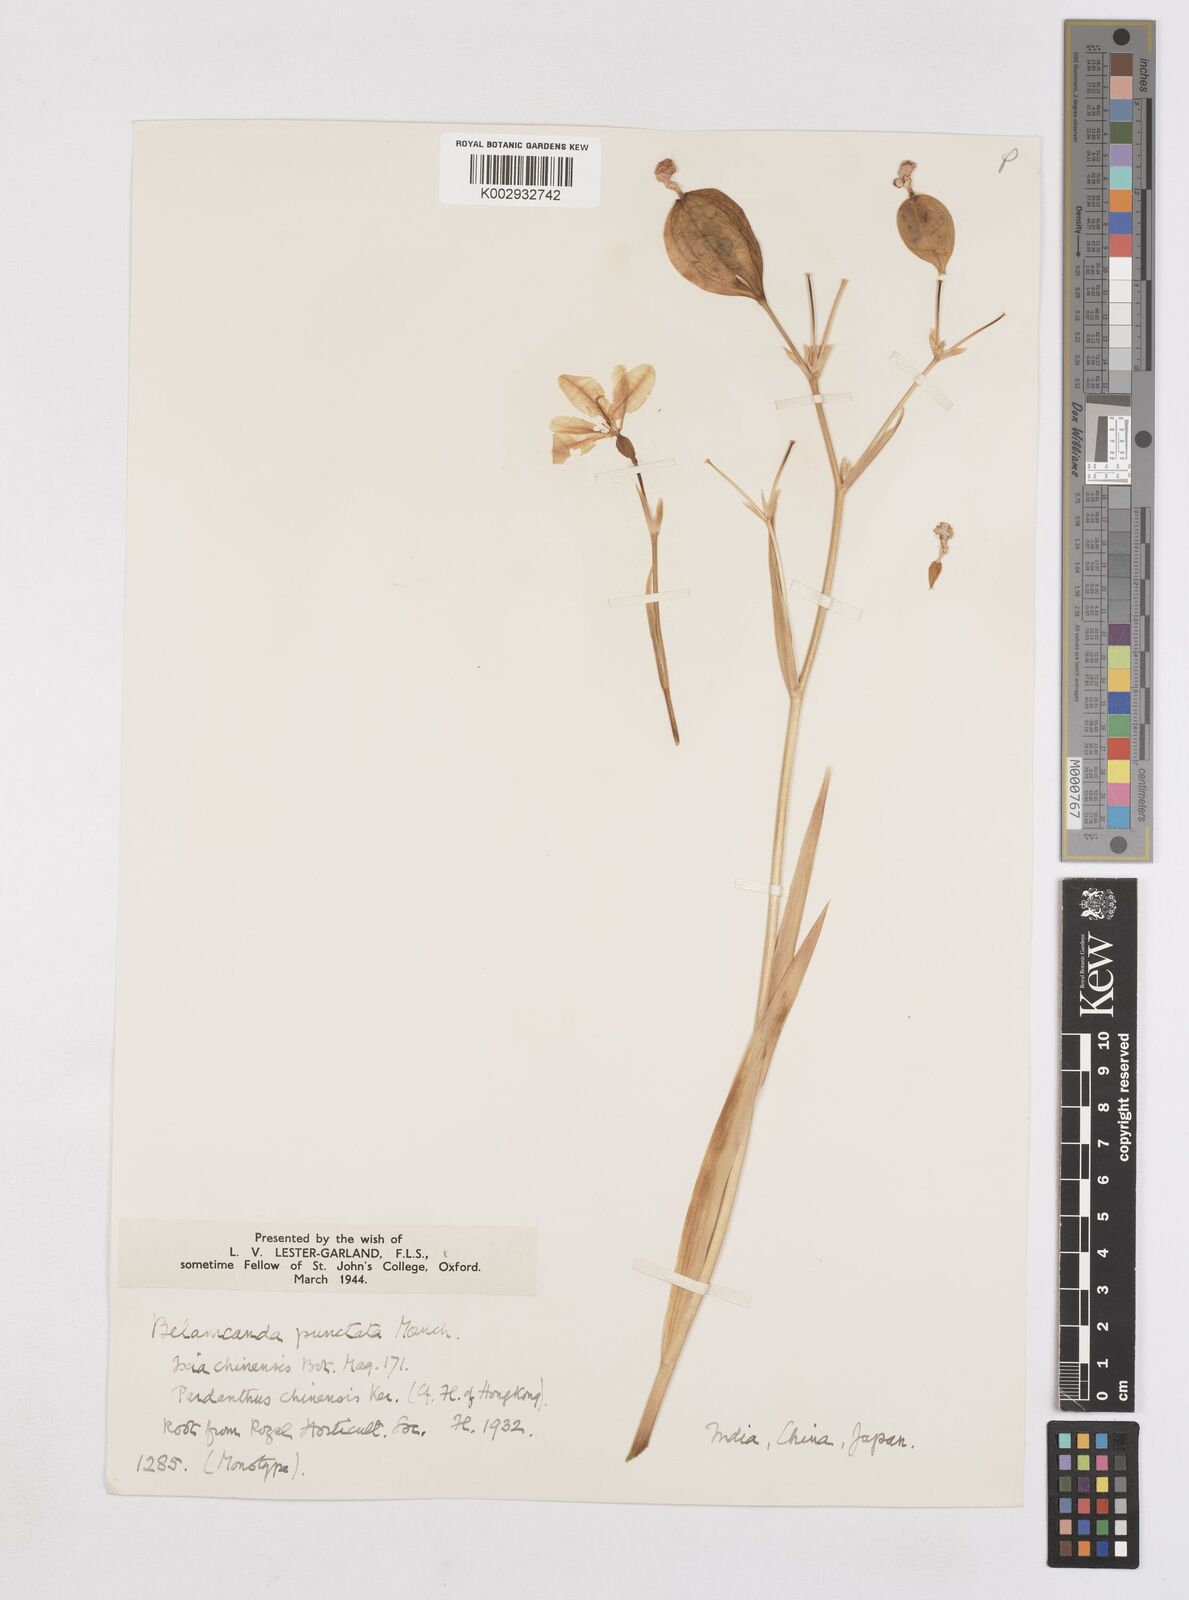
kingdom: Plantae
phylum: Tracheophyta
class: Liliopsida
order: Asparagales
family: Iridaceae
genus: Iris
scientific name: Iris
